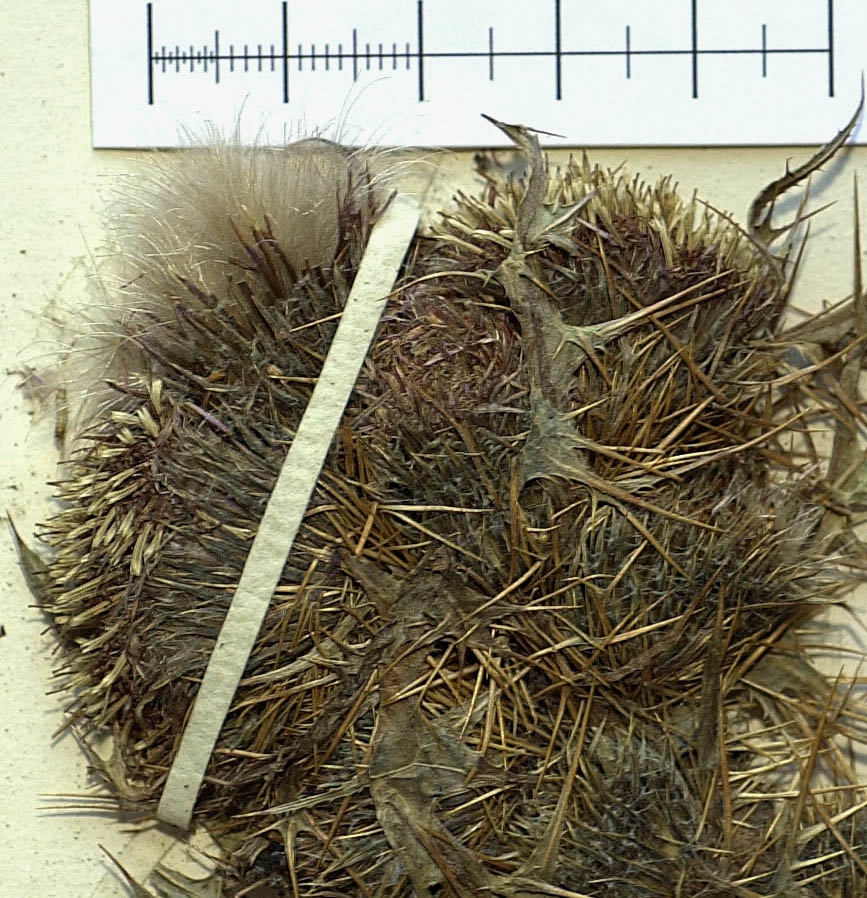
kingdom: Plantae
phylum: Tracheophyta
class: Magnoliopsida
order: Asterales
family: Asteraceae
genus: Cirsium
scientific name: Cirsium jorullense
